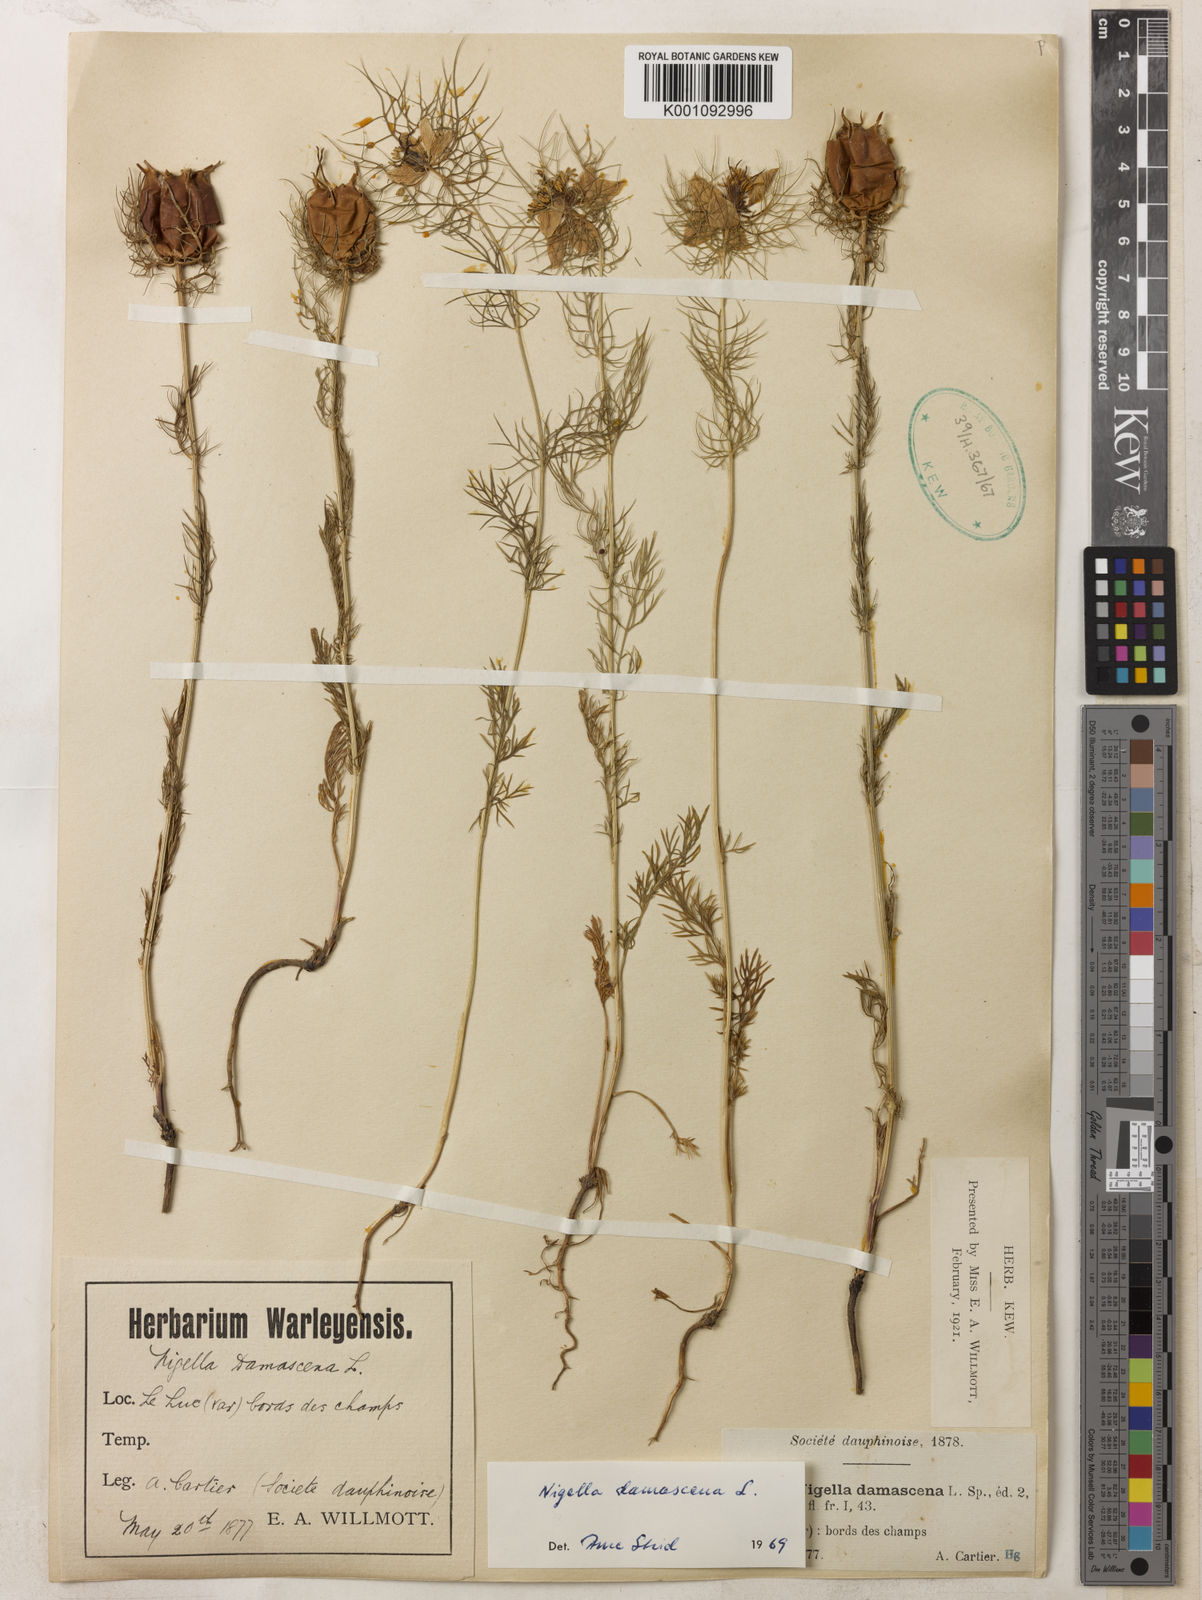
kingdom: Plantae
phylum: Tracheophyta
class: Magnoliopsida
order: Ranunculales
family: Ranunculaceae
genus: Nigella
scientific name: Nigella damascena
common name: Love-in-a-mist
